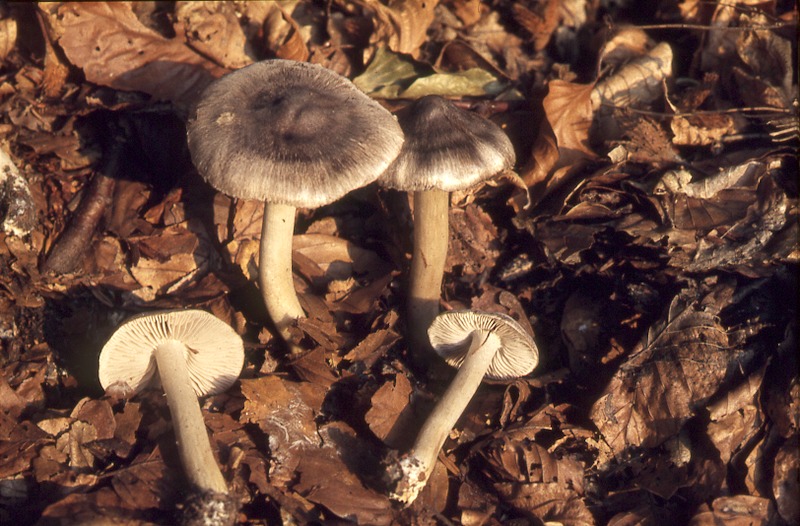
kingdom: Fungi
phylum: Basidiomycota
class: Agaricomycetes
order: Agaricales
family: Tricholomataceae
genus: Tricholoma
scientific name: Tricholoma sciodes
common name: Beech knight
